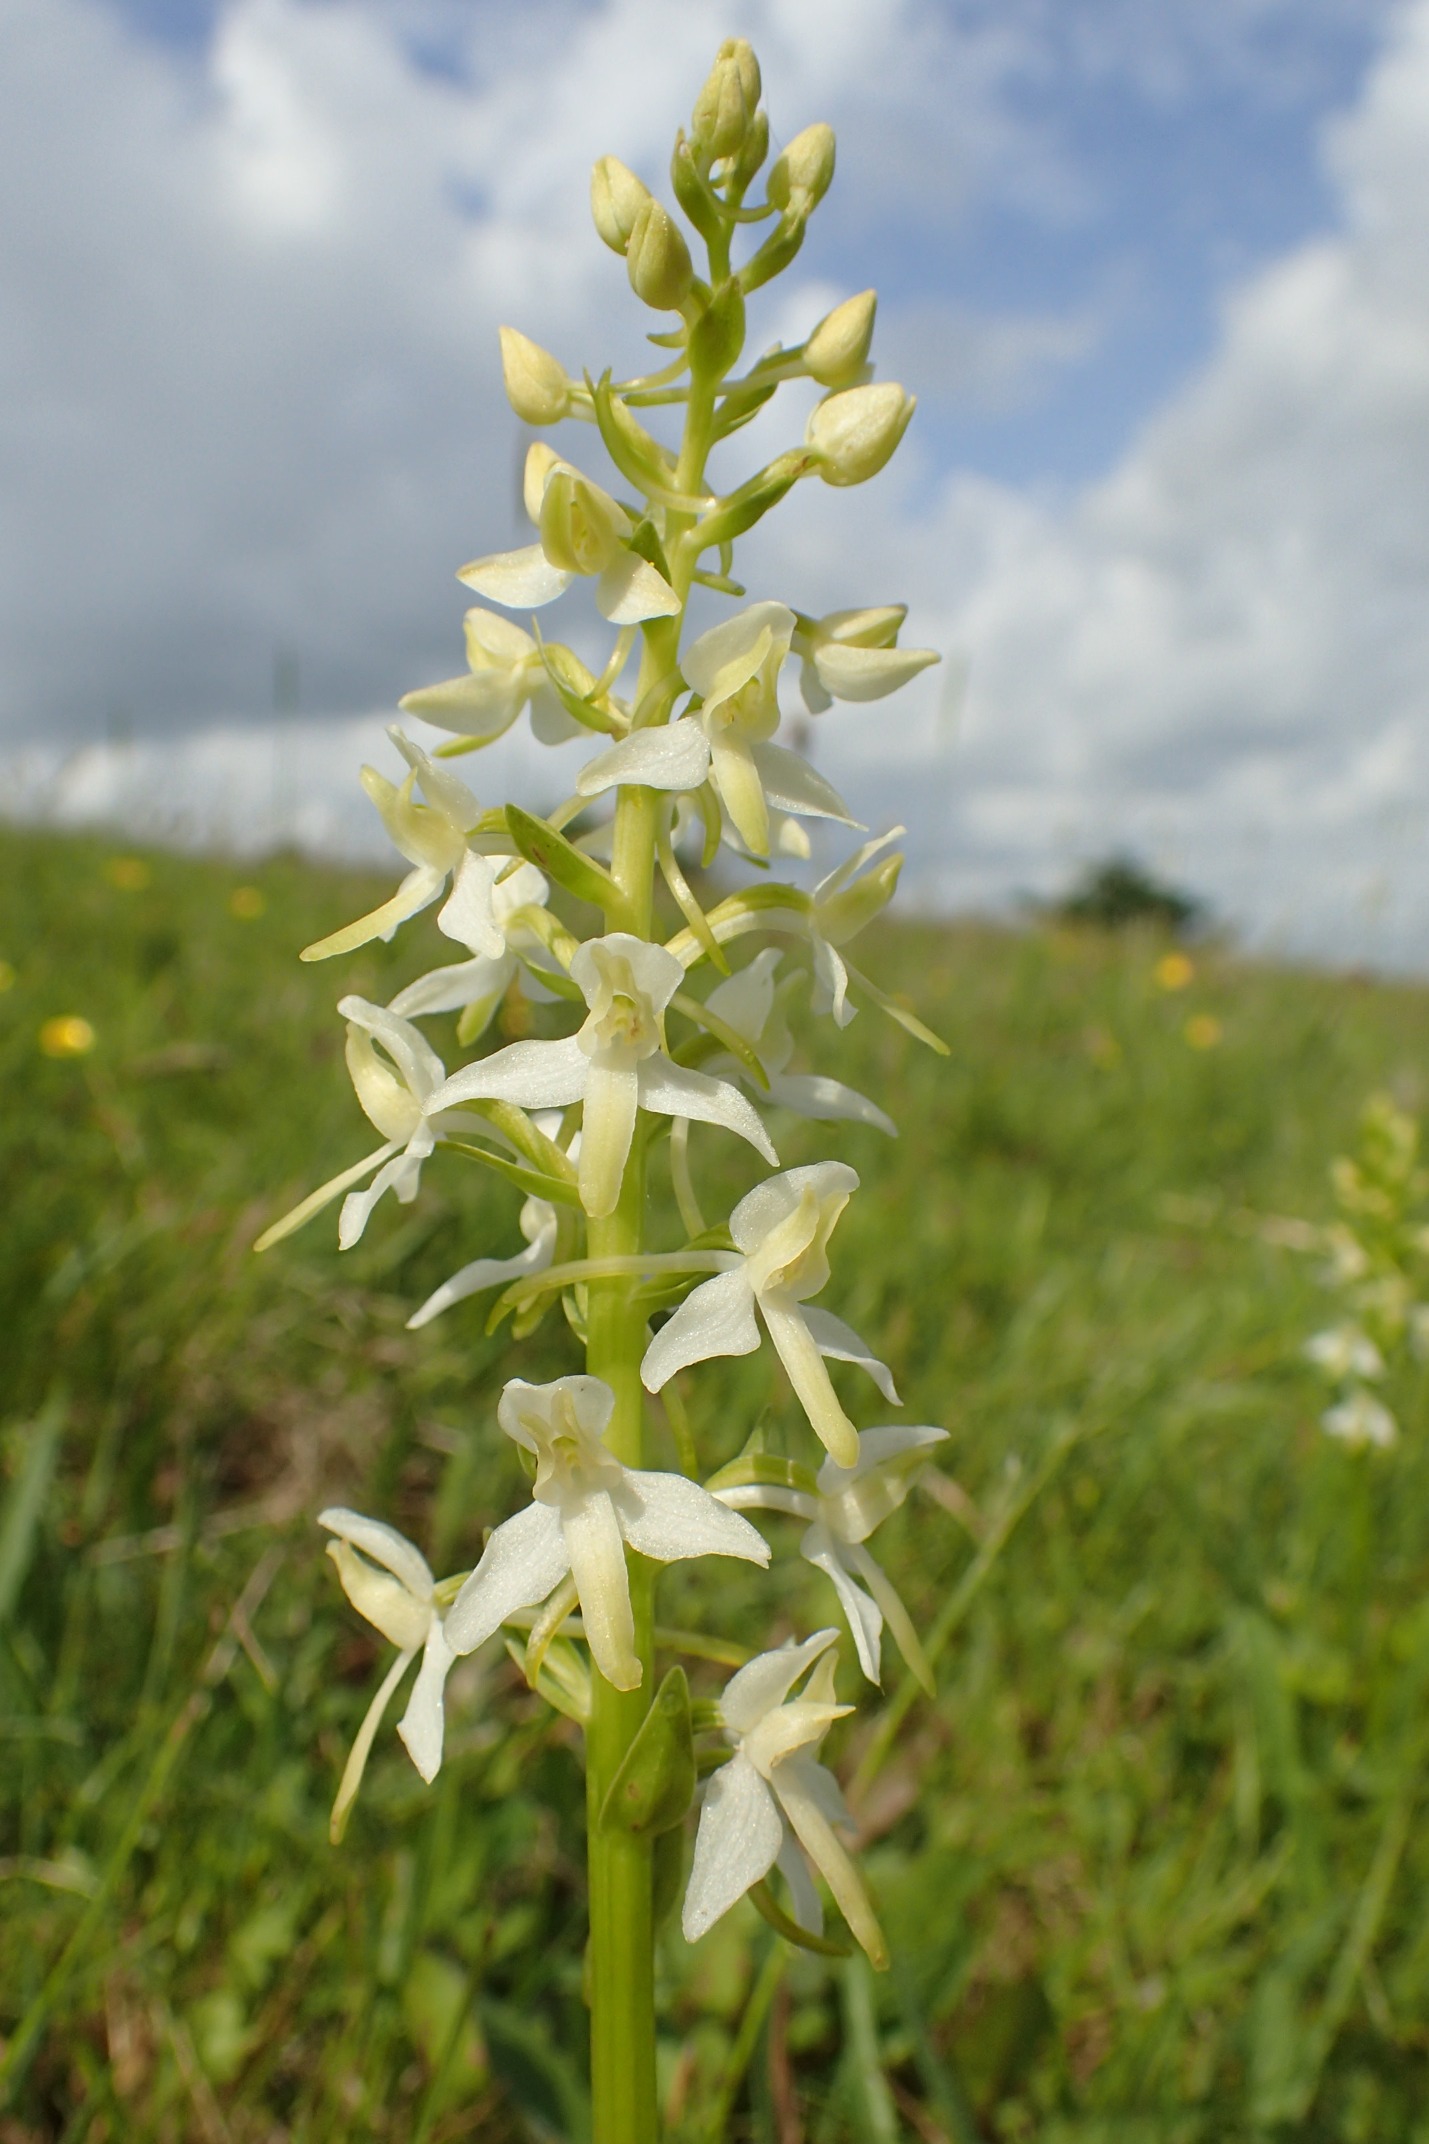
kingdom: Plantae
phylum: Tracheophyta
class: Liliopsida
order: Asparagales
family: Orchidaceae
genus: Platanthera
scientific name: Platanthera
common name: Bakke-gøgelilje × skov-gøgelilje
